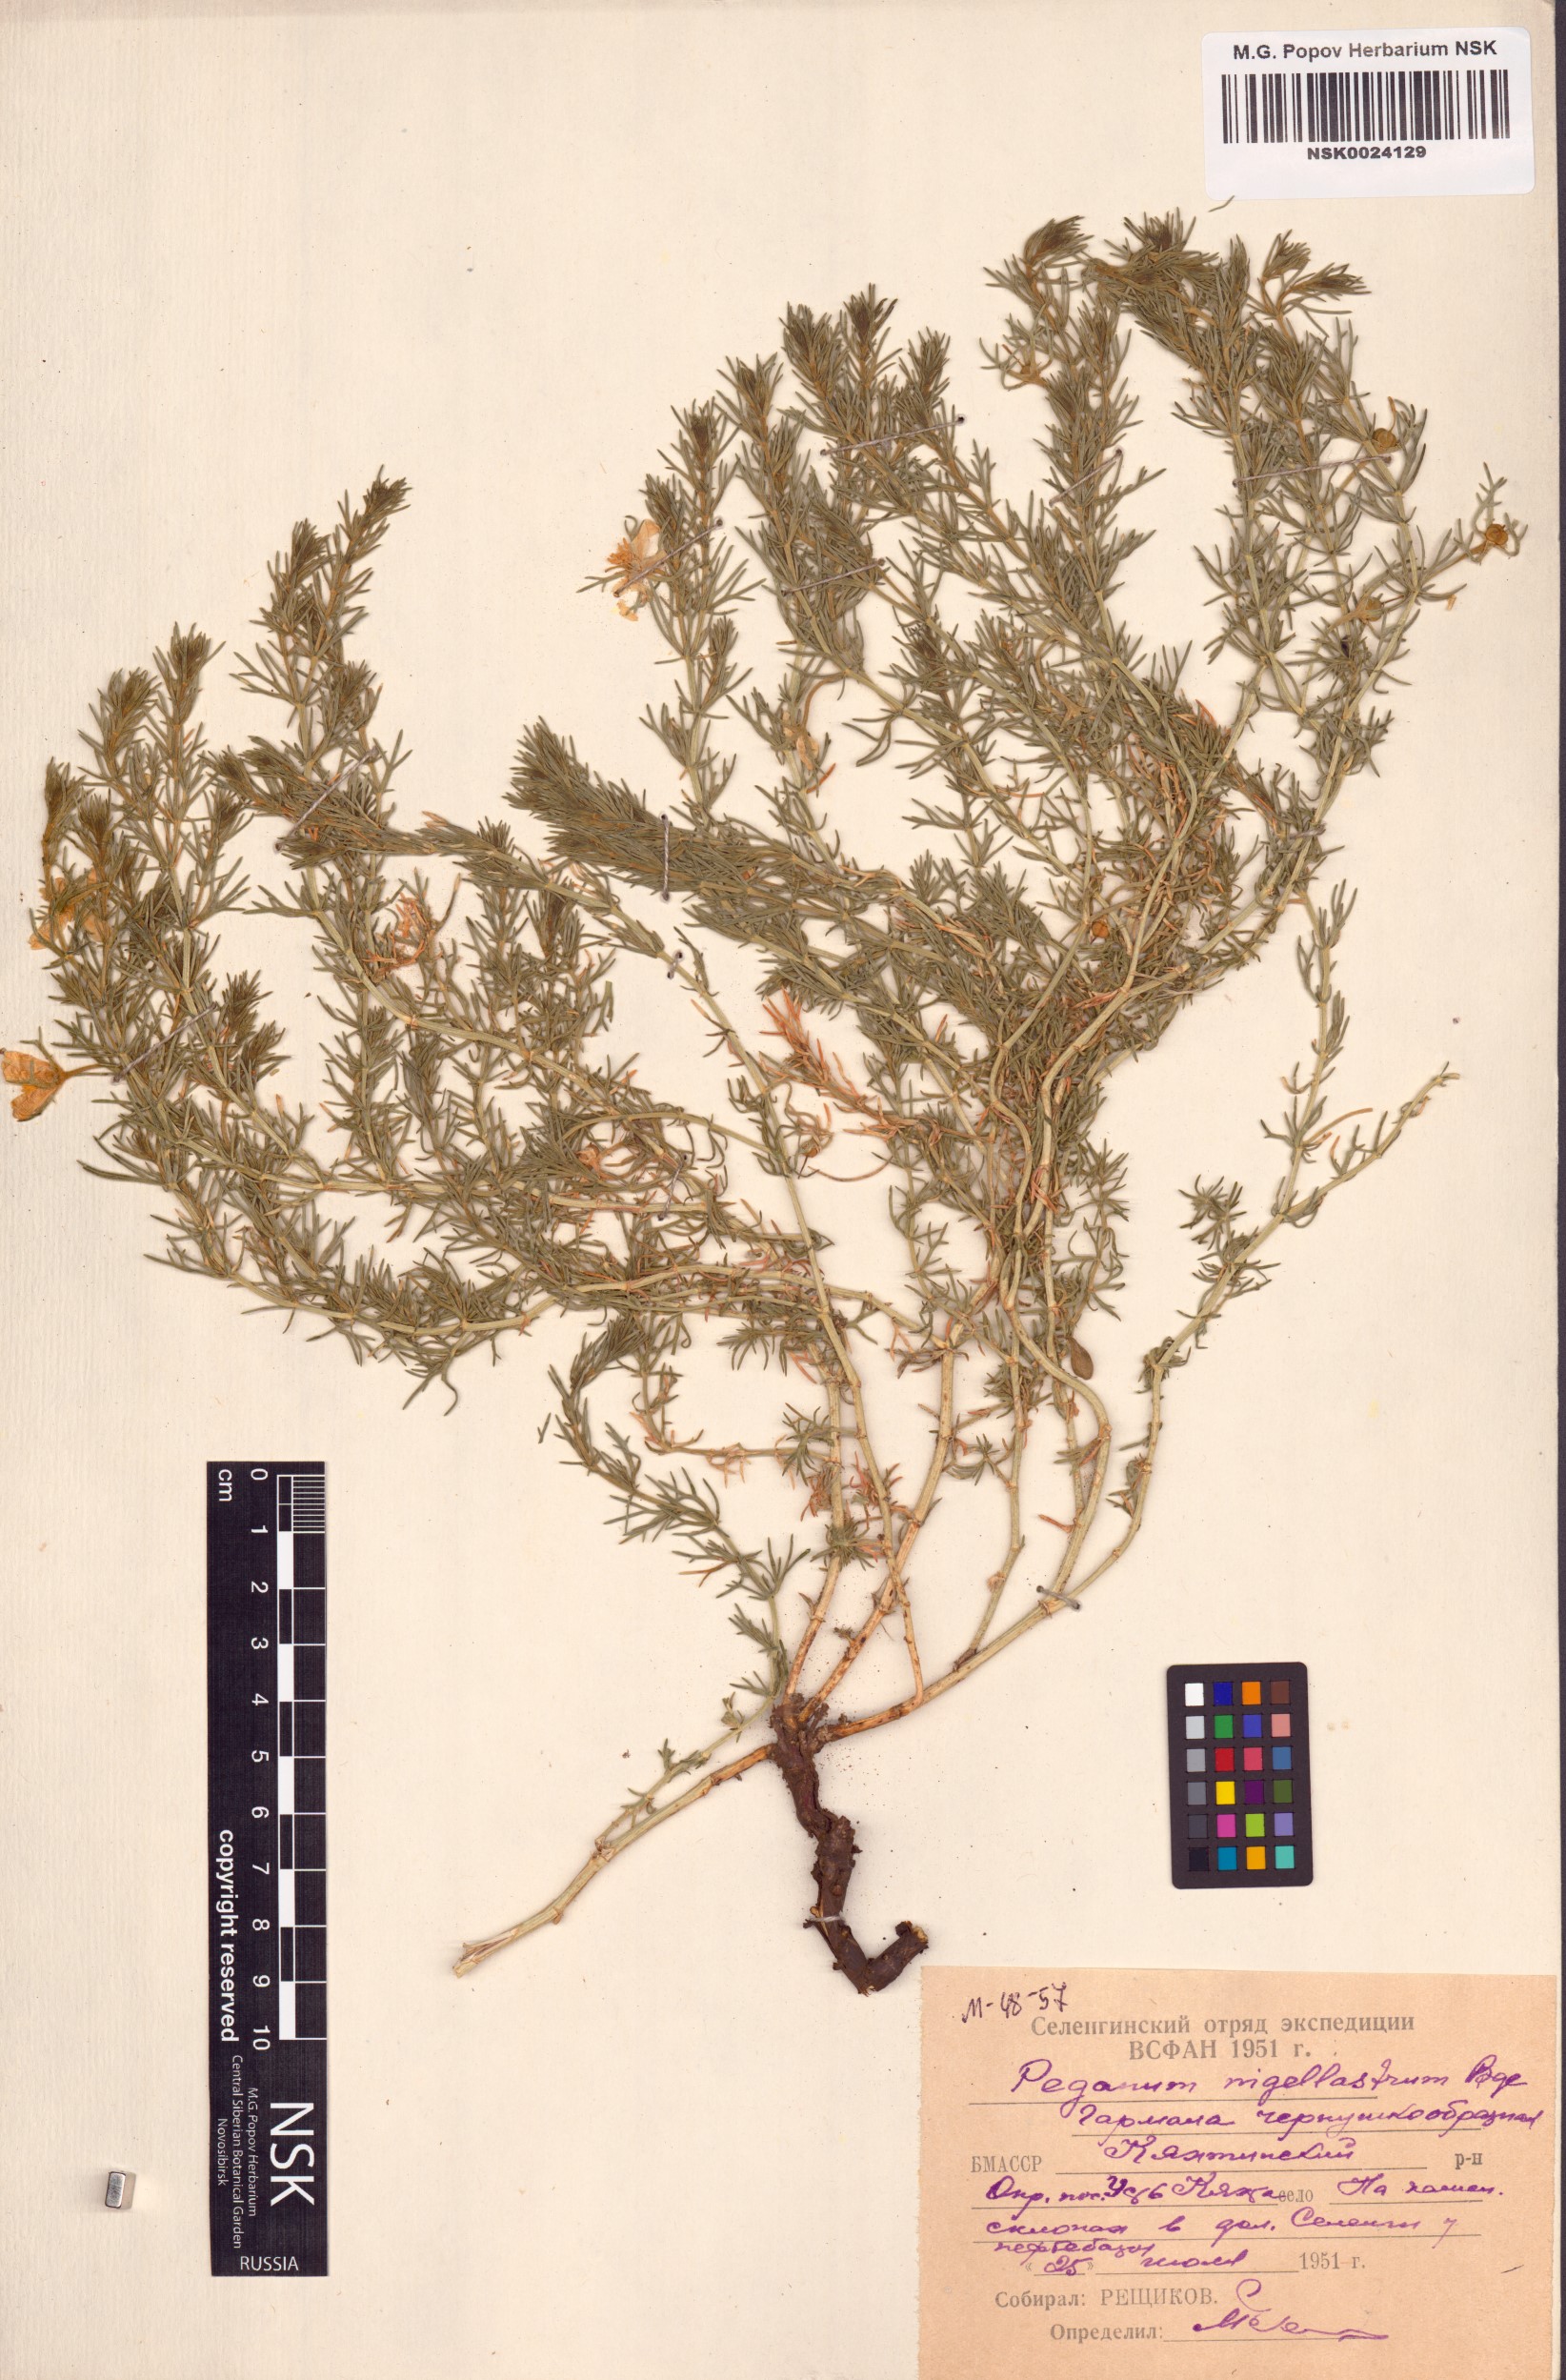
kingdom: Plantae
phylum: Tracheophyta
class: Magnoliopsida
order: Sapindales
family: Tetradiclidaceae
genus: Peganum
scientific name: Peganum nigellastrum
